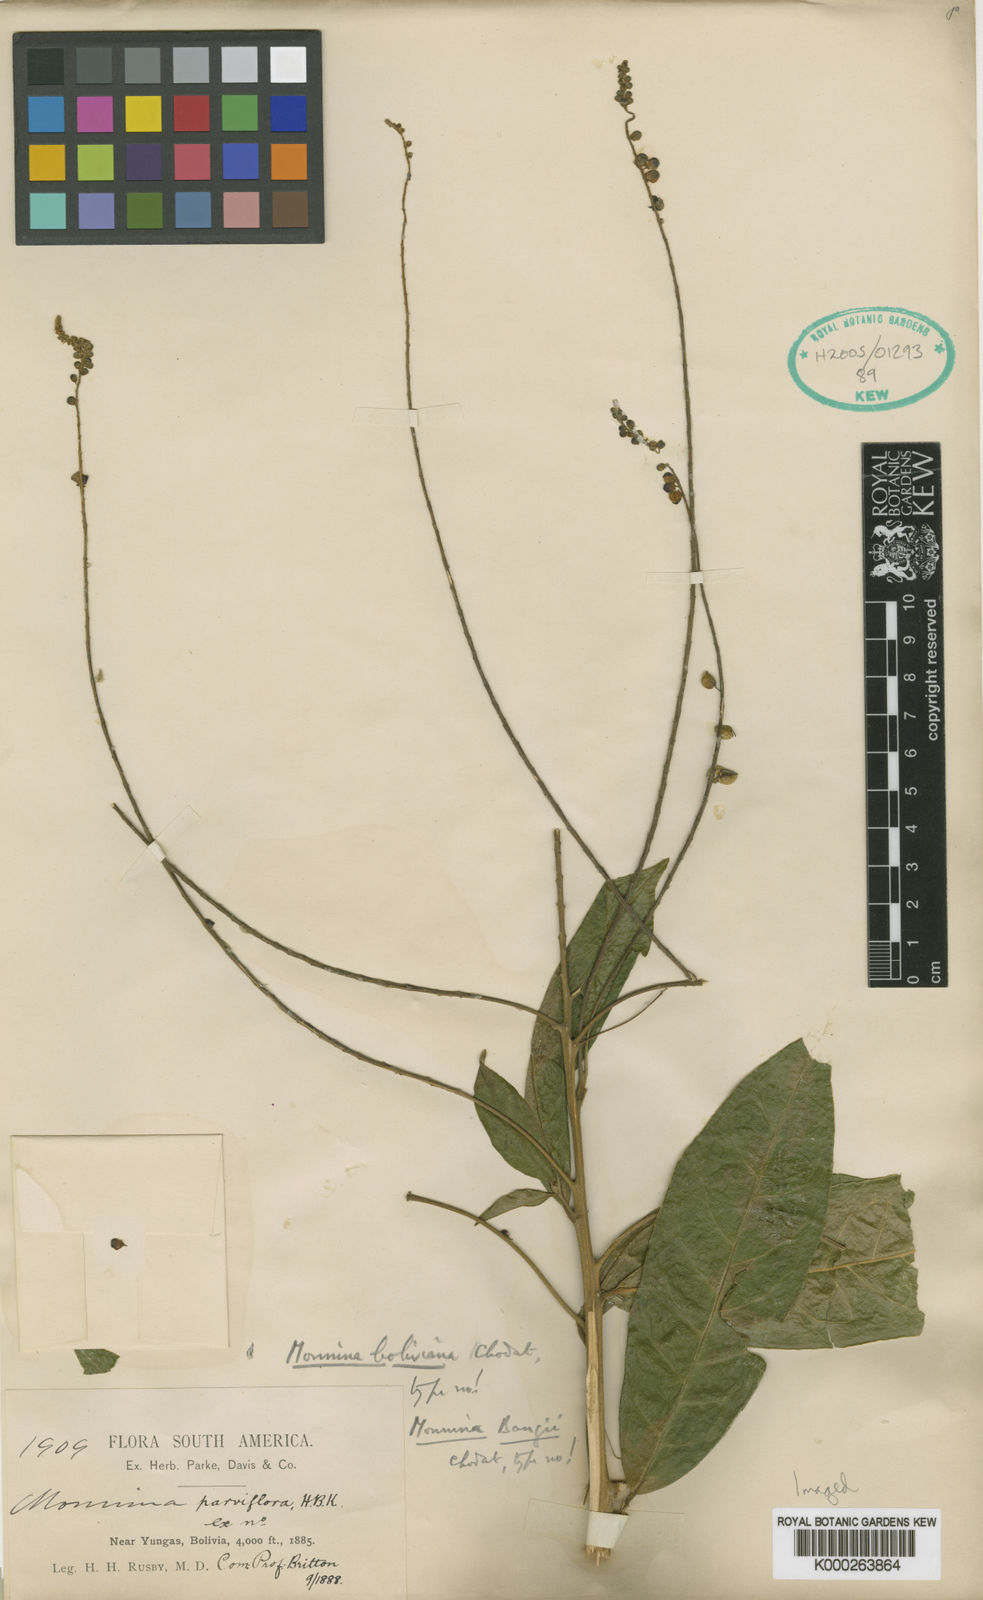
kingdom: Plantae
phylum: Tracheophyta
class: Magnoliopsida
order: Fabales
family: Polygalaceae
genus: Monnina
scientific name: Monnina boliviana
